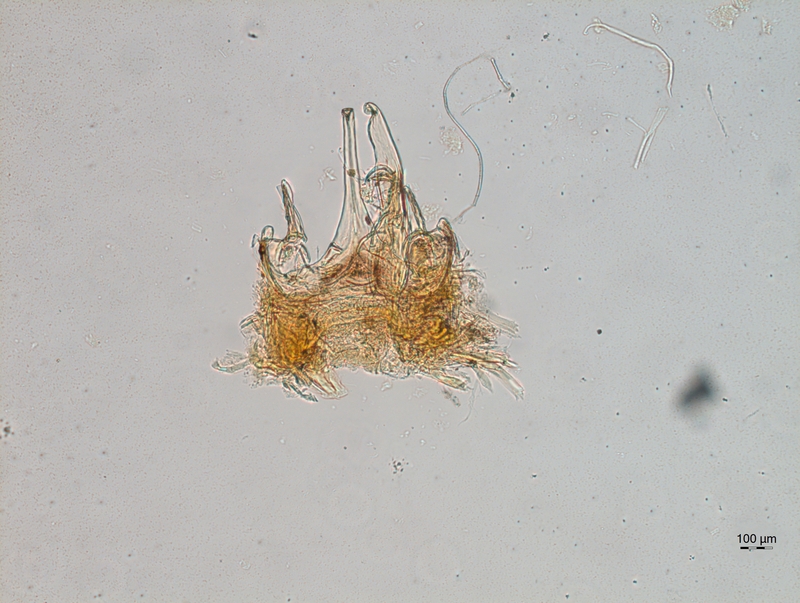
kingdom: Animalia
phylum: Arthropoda
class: Diplopoda
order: Chordeumatida
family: Chordeumatidae
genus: Mycogona
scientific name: Mycogona germanica
